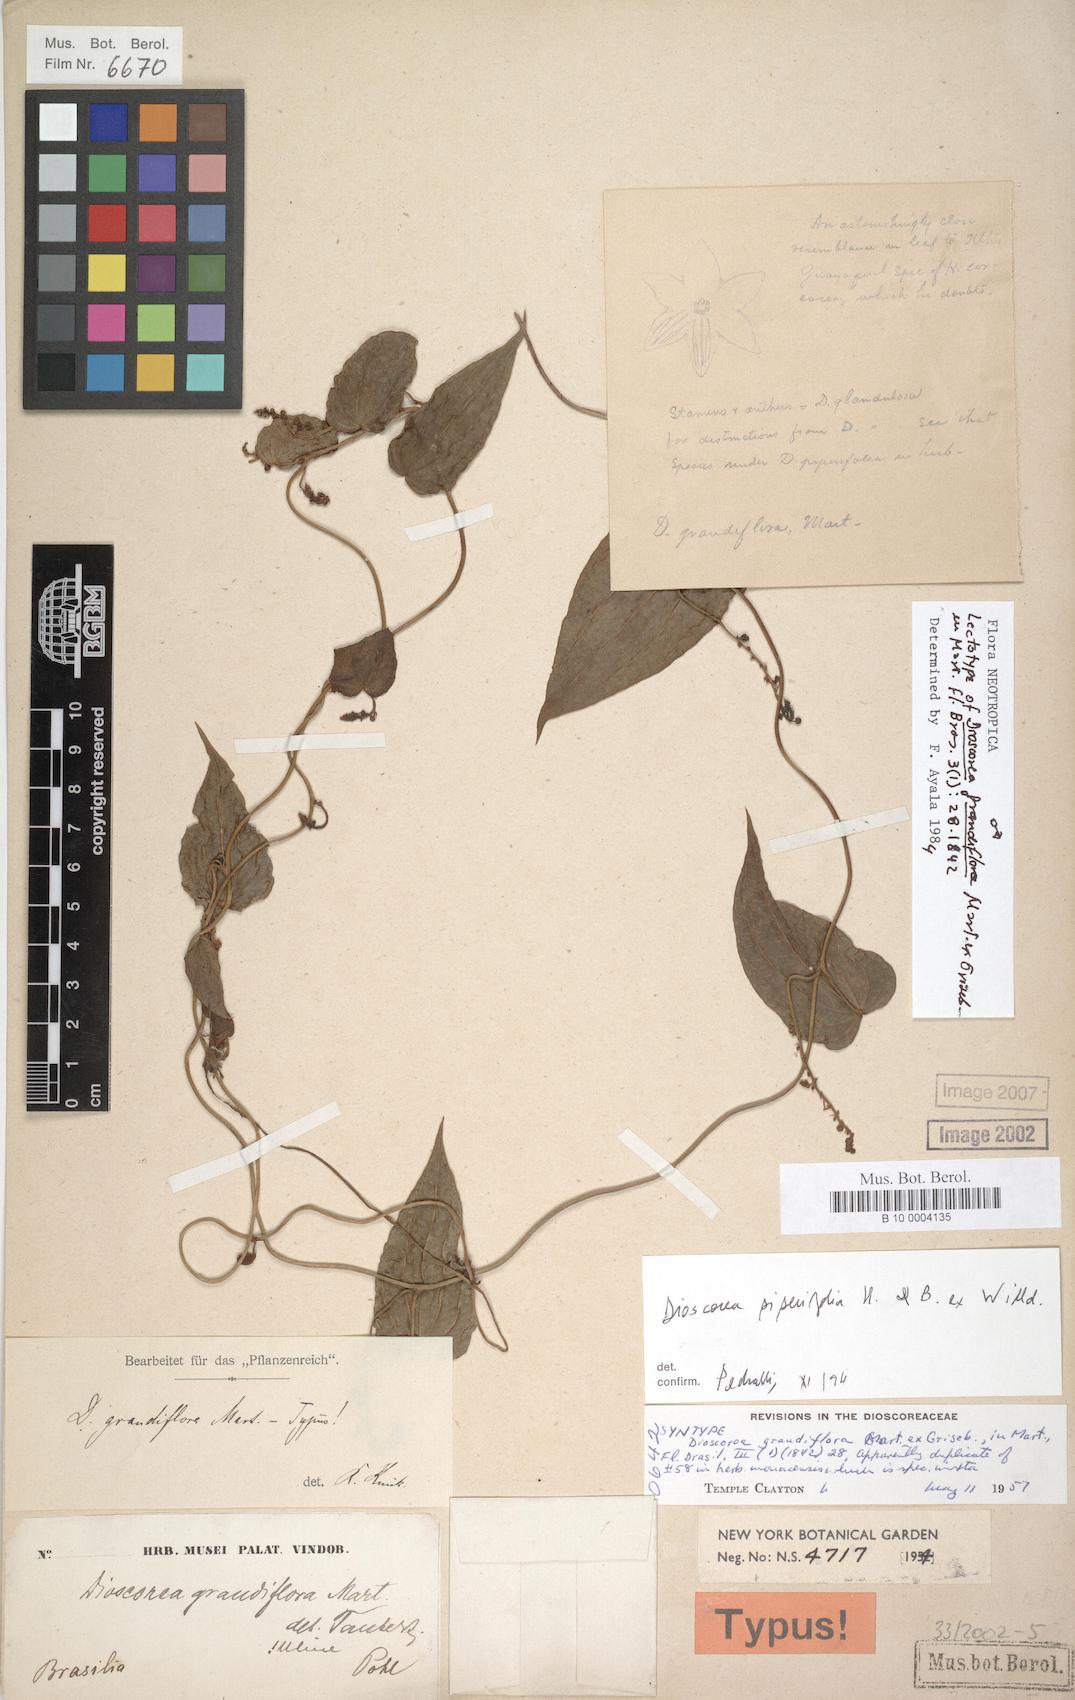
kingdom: Plantae
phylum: Tracheophyta
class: Liliopsida
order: Dioscoreales
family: Dioscoreaceae
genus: Dioscorea
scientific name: Dioscorea grandiflora
